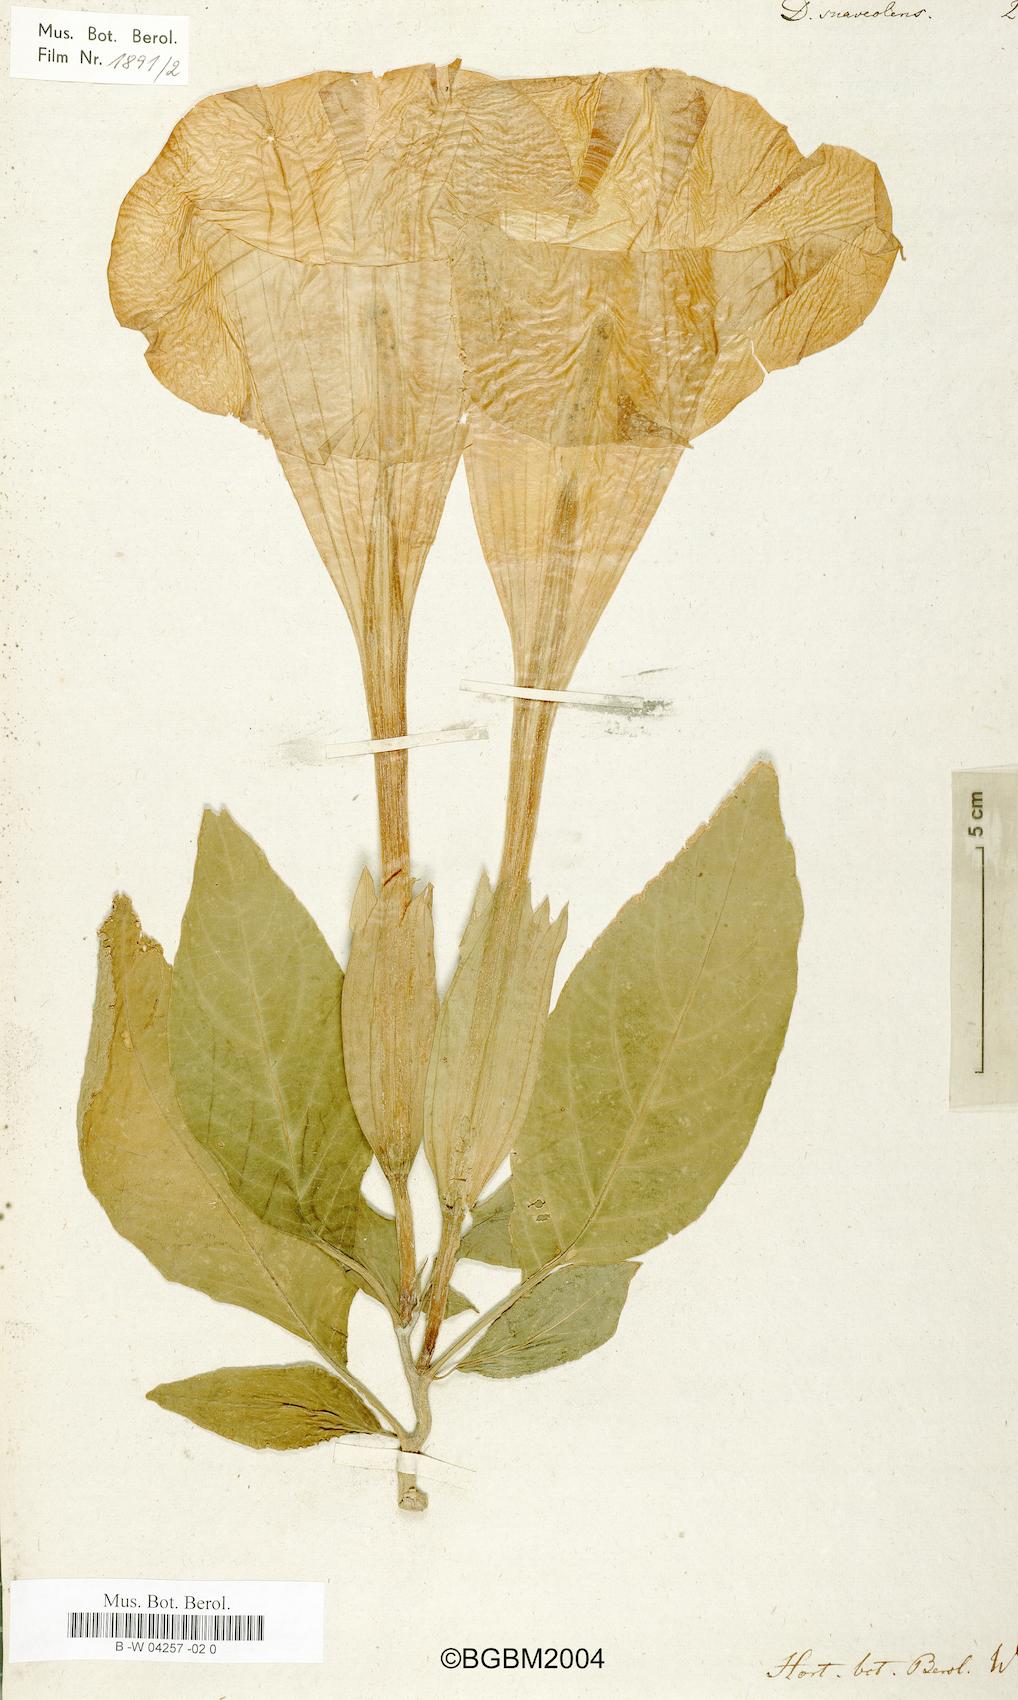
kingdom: Plantae
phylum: Tracheophyta
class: Magnoliopsida
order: Solanales
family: Solanaceae
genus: Brugmansia
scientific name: Brugmansia suaveolens
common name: Angel's tears
